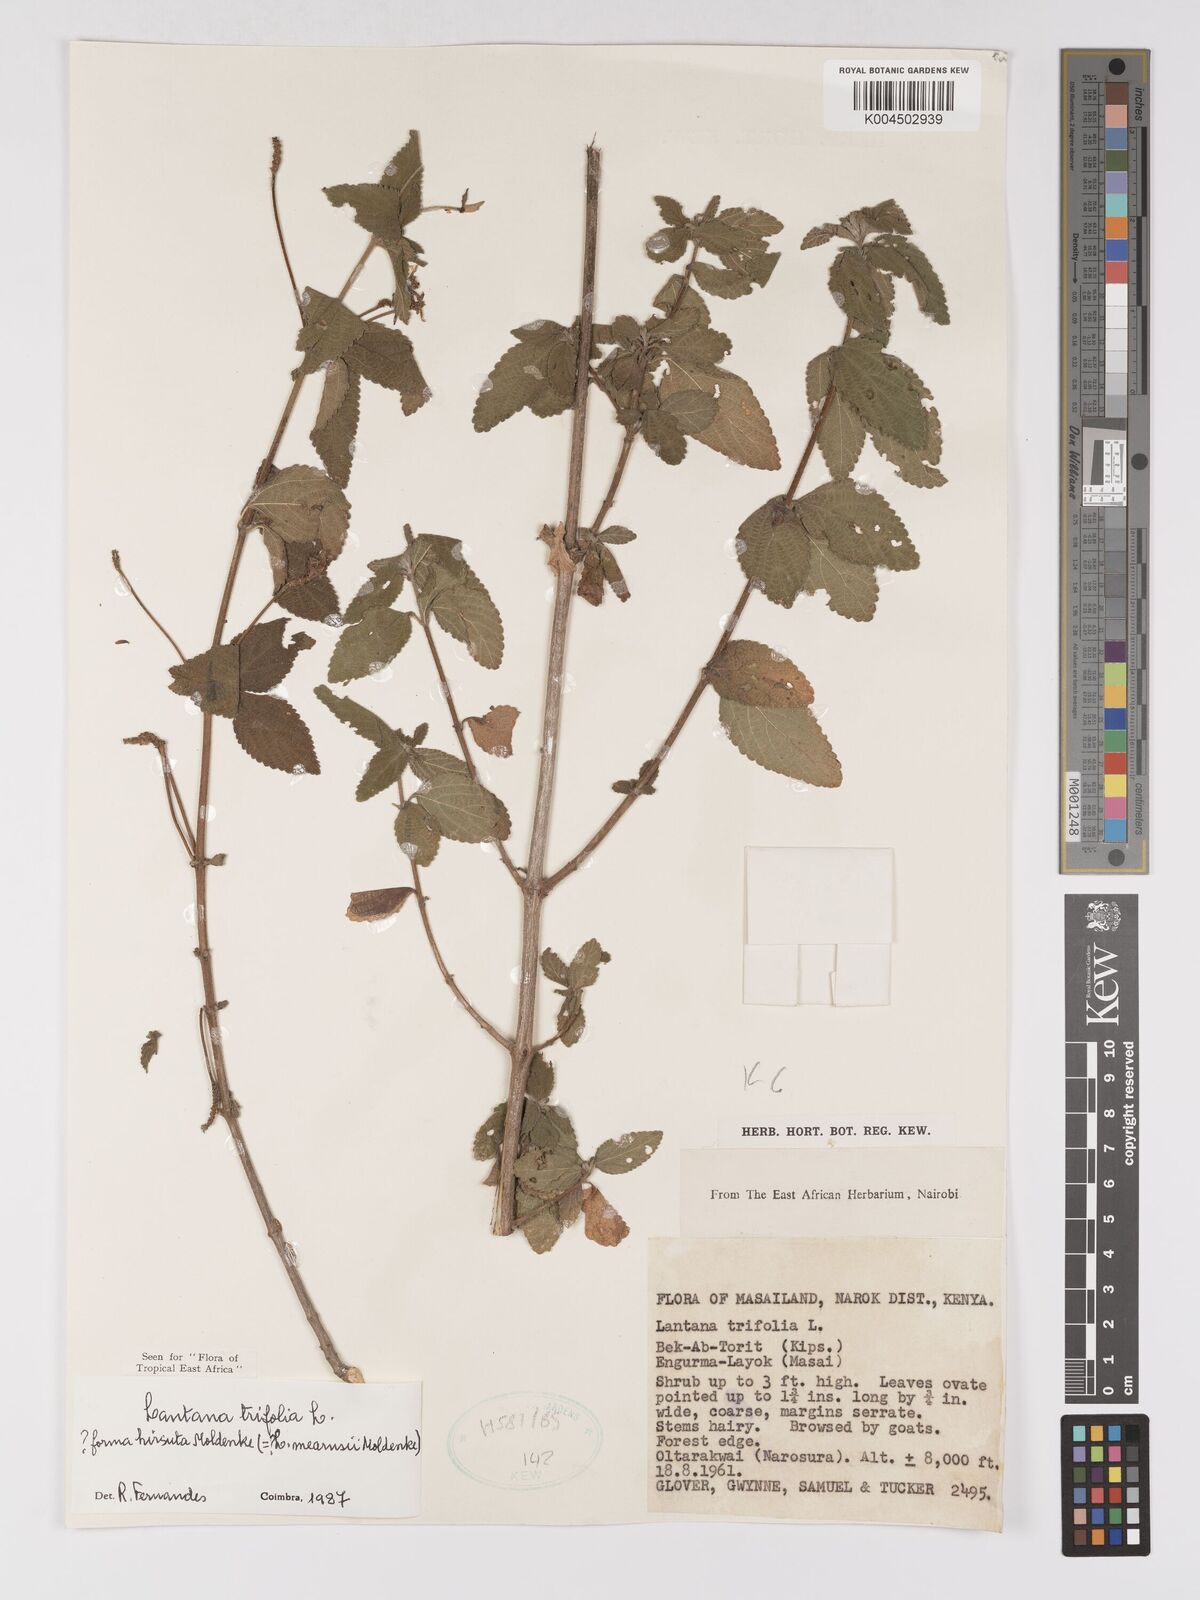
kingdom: Plantae
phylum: Tracheophyta
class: Magnoliopsida
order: Lamiales
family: Verbenaceae
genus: Lantana
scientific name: Lantana trifolia
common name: Sweet-sage
